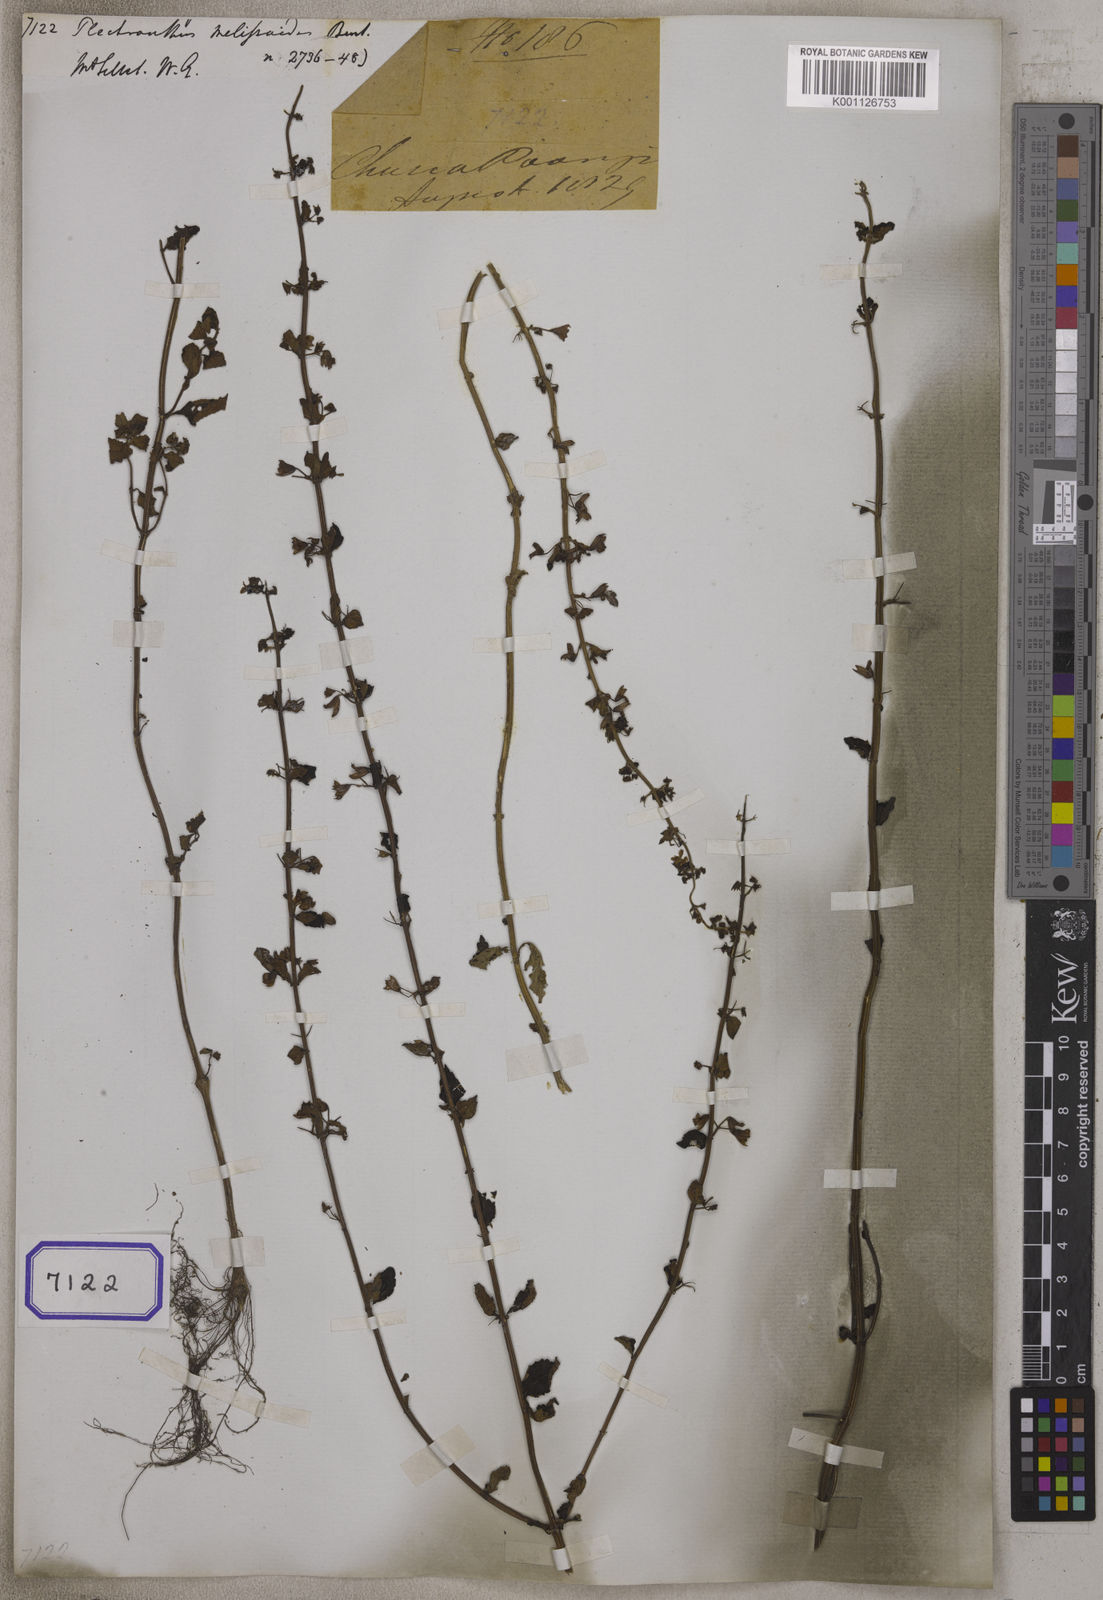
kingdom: Plantae
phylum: Tracheophyta
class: Magnoliopsida
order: Lamiales
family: Lamiaceae
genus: Isodon
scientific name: Isodon melissoides
